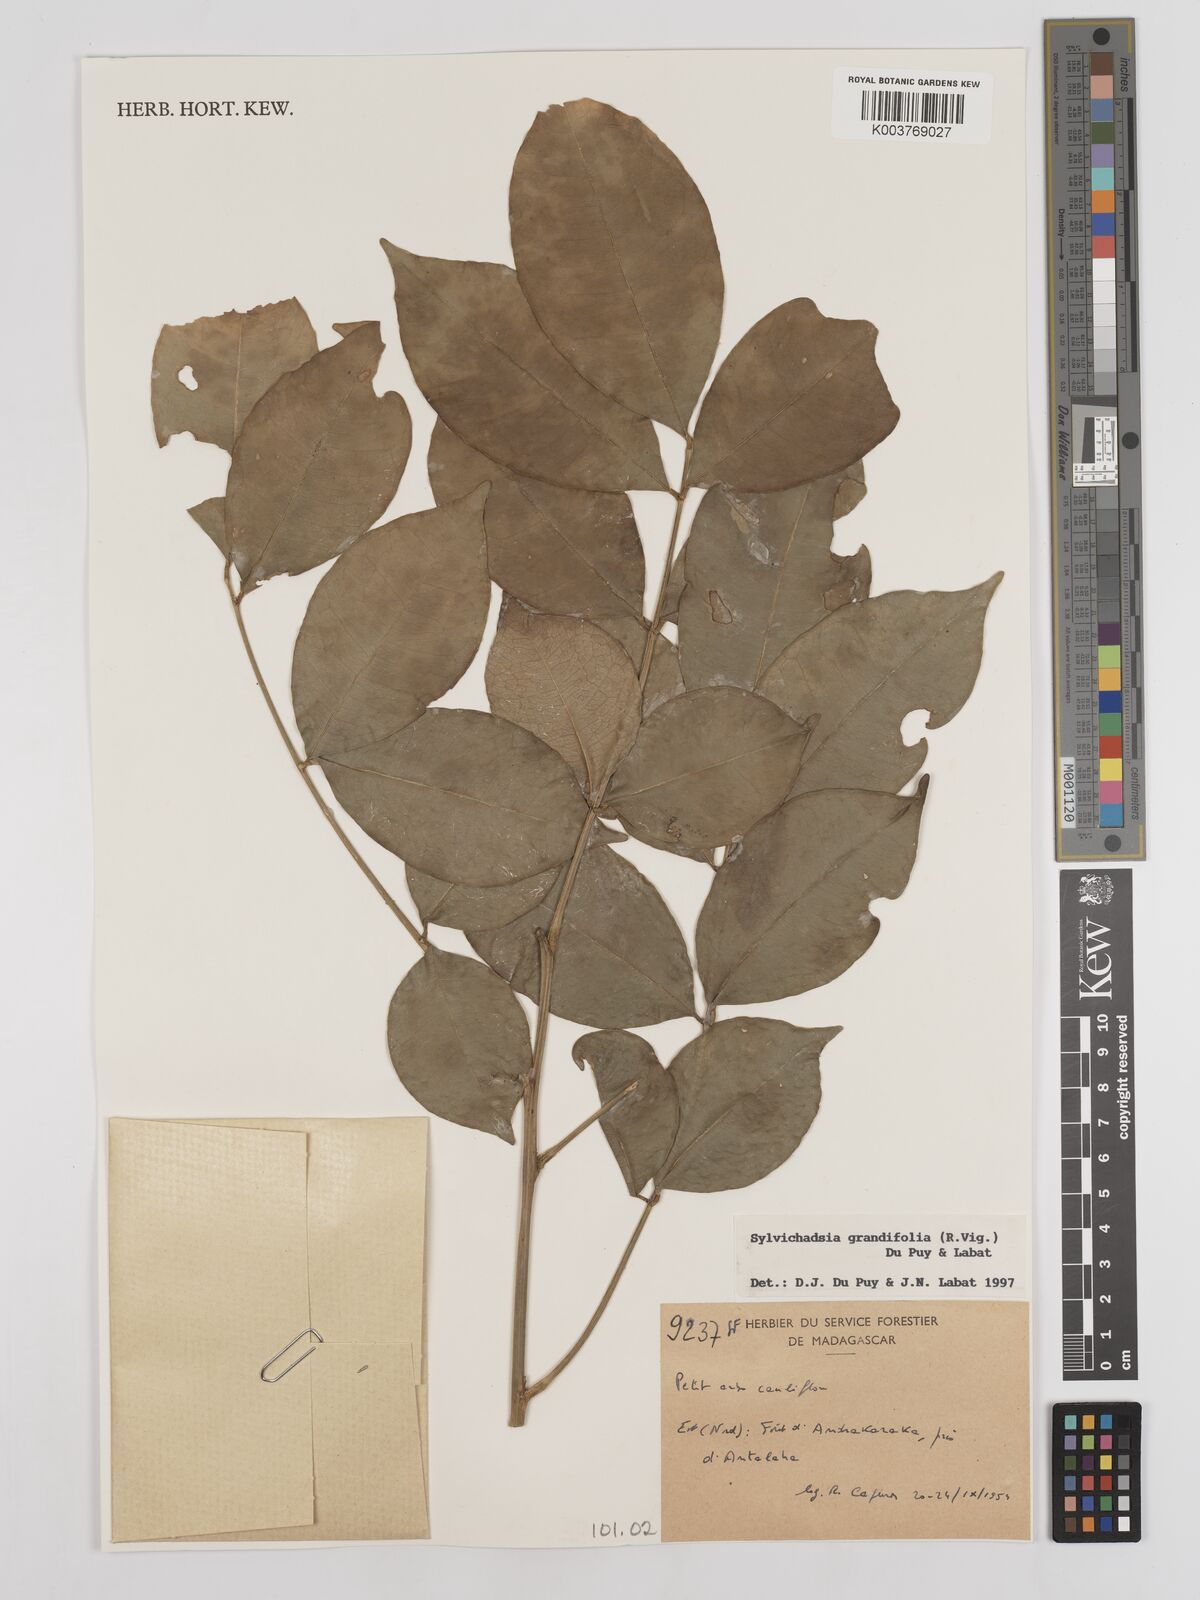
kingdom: Plantae
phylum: Tracheophyta
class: Magnoliopsida
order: Fabales
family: Fabaceae
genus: Sylvichadsia
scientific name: Sylvichadsia grandifolia
